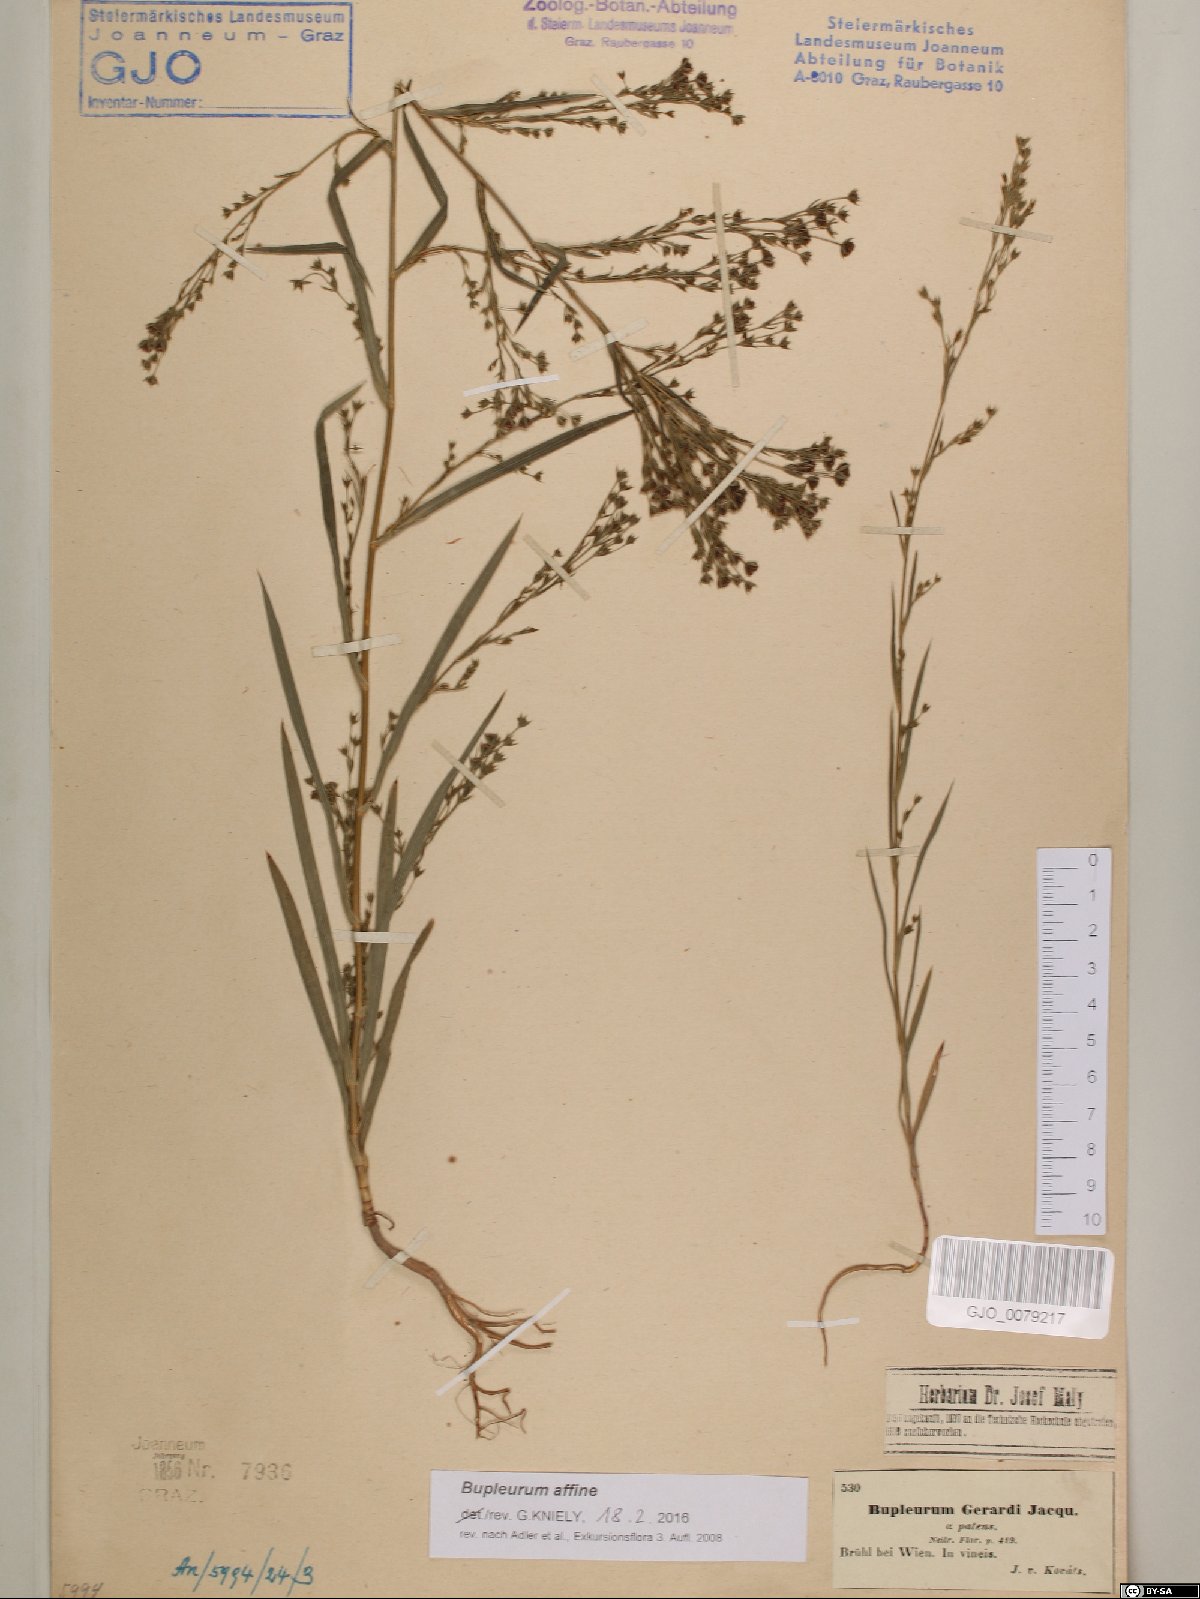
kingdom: Plantae
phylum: Tracheophyta
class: Magnoliopsida
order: Apiales
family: Apiaceae
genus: Bupleurum
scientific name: Bupleurum affine
